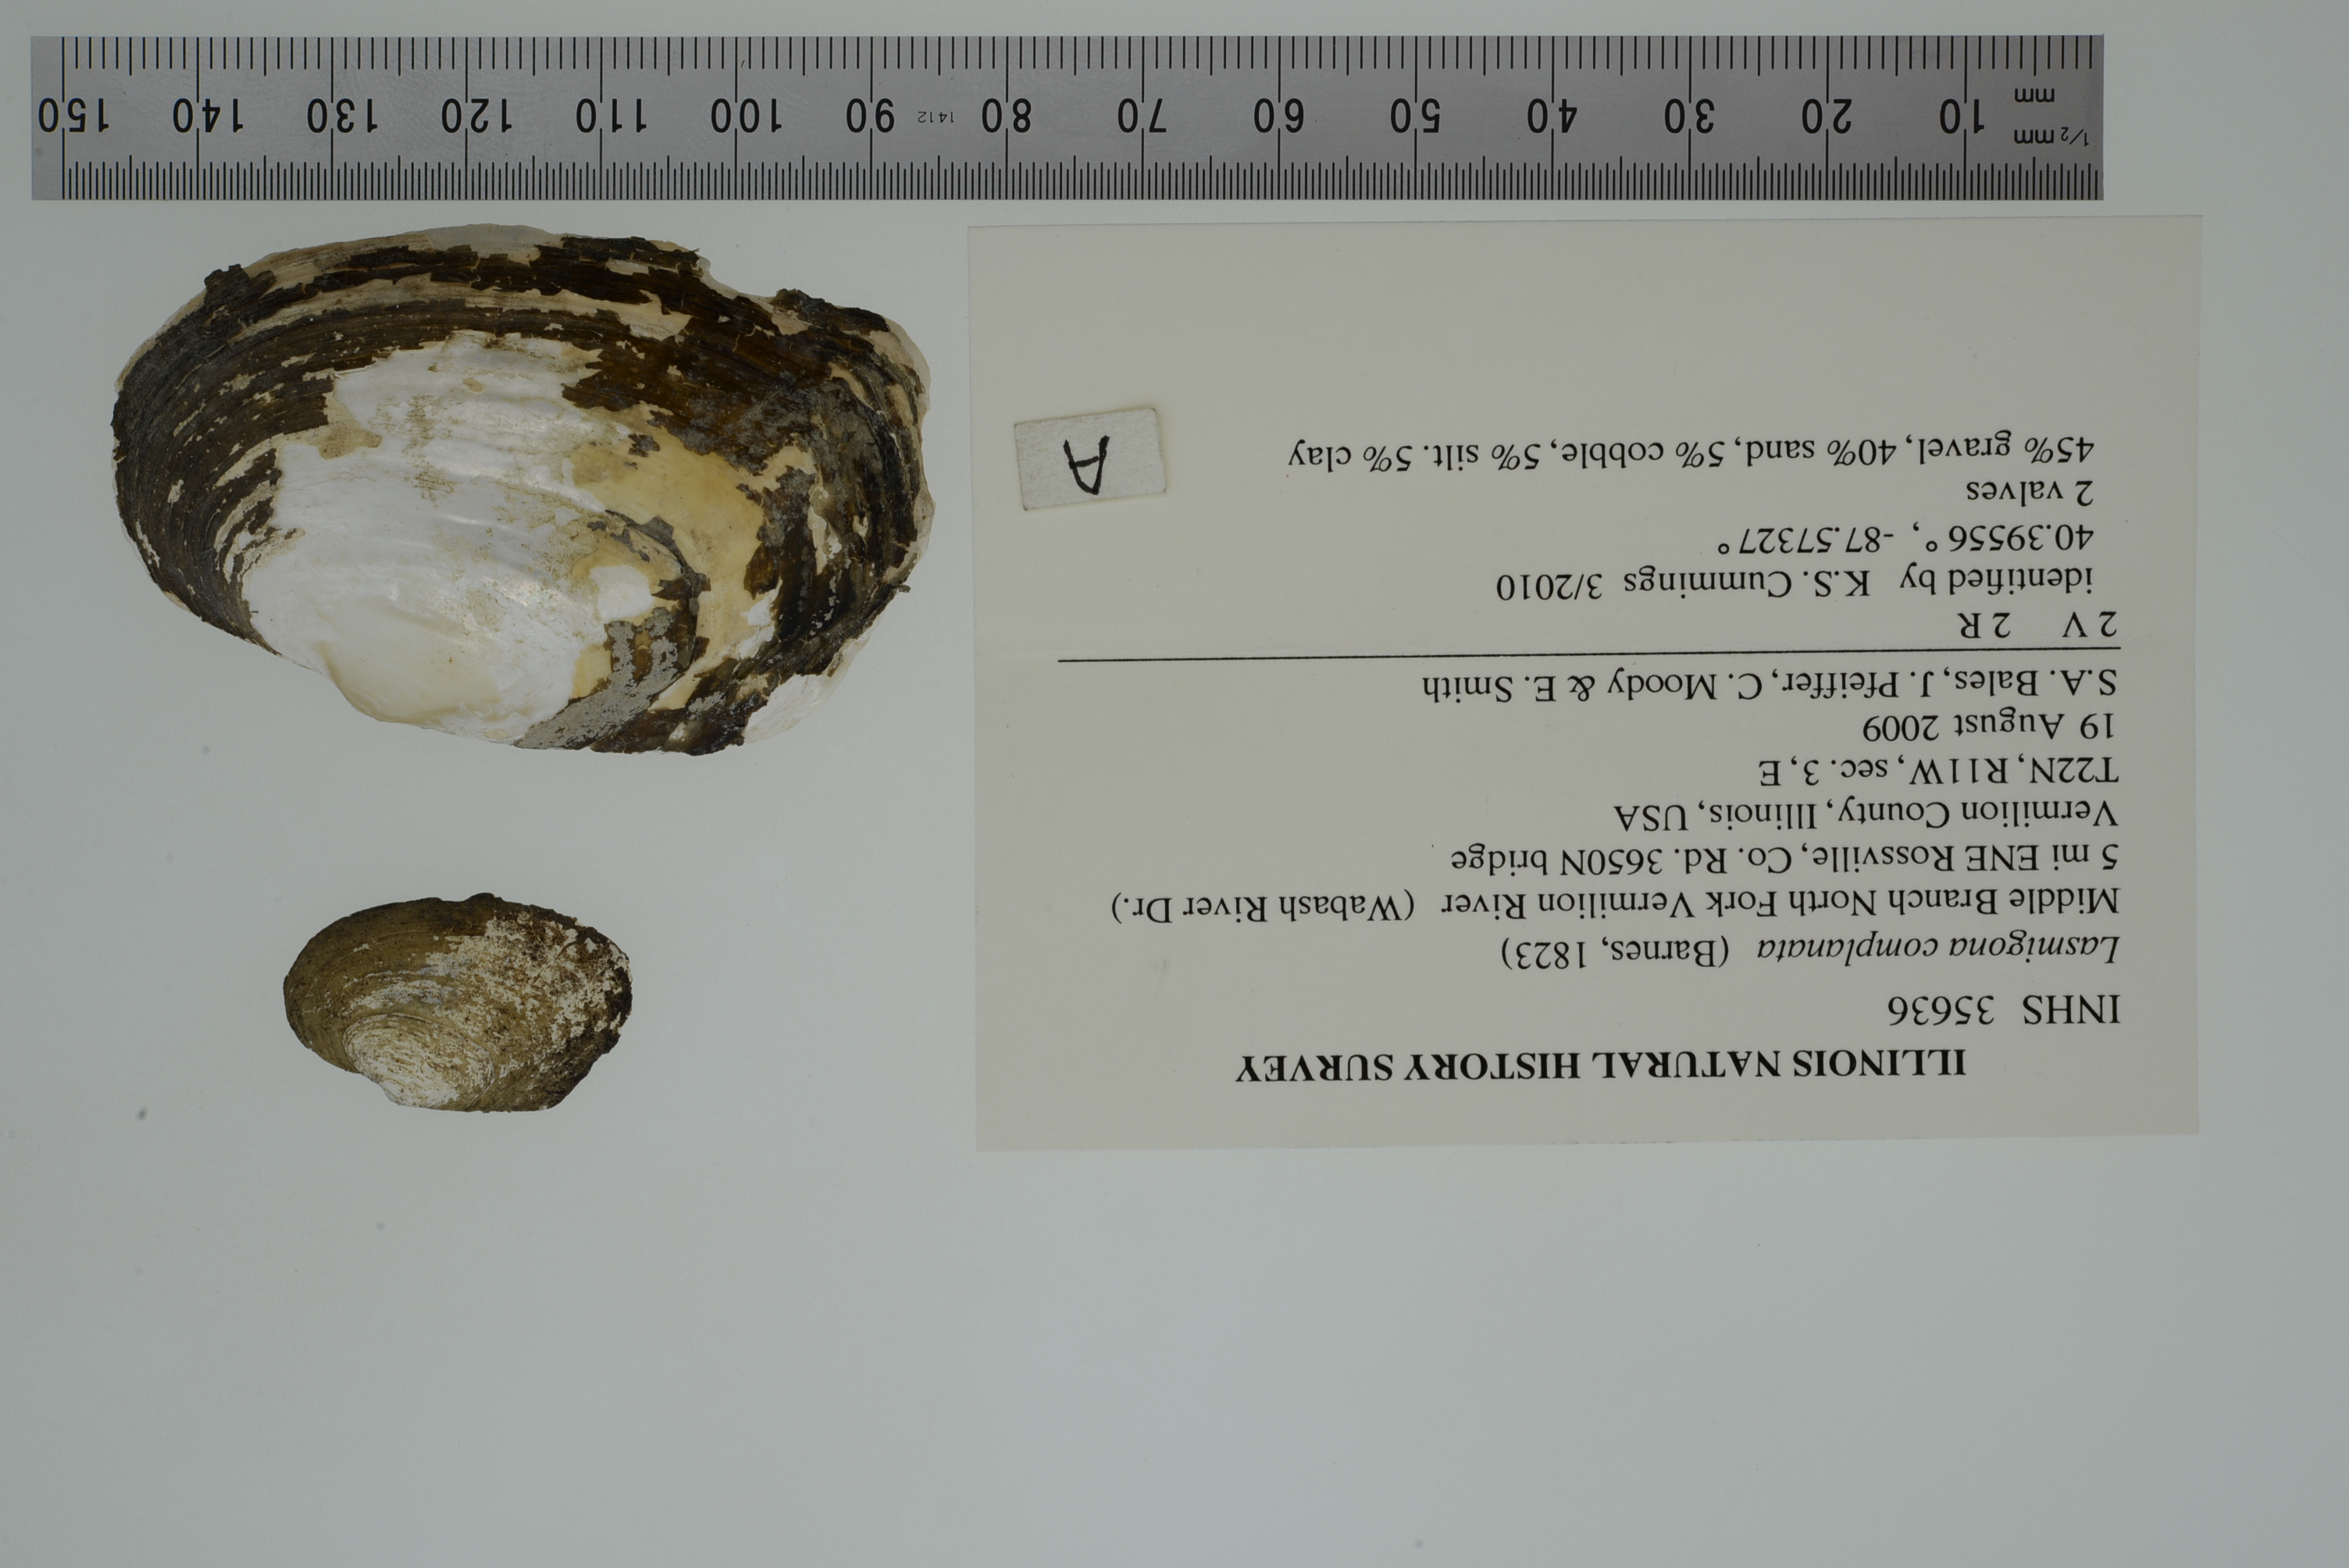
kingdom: Animalia
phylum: Mollusca
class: Bivalvia
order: Unionida
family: Unionidae
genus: Lasmigona
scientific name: Lasmigona complanata
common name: White heelsplitter
